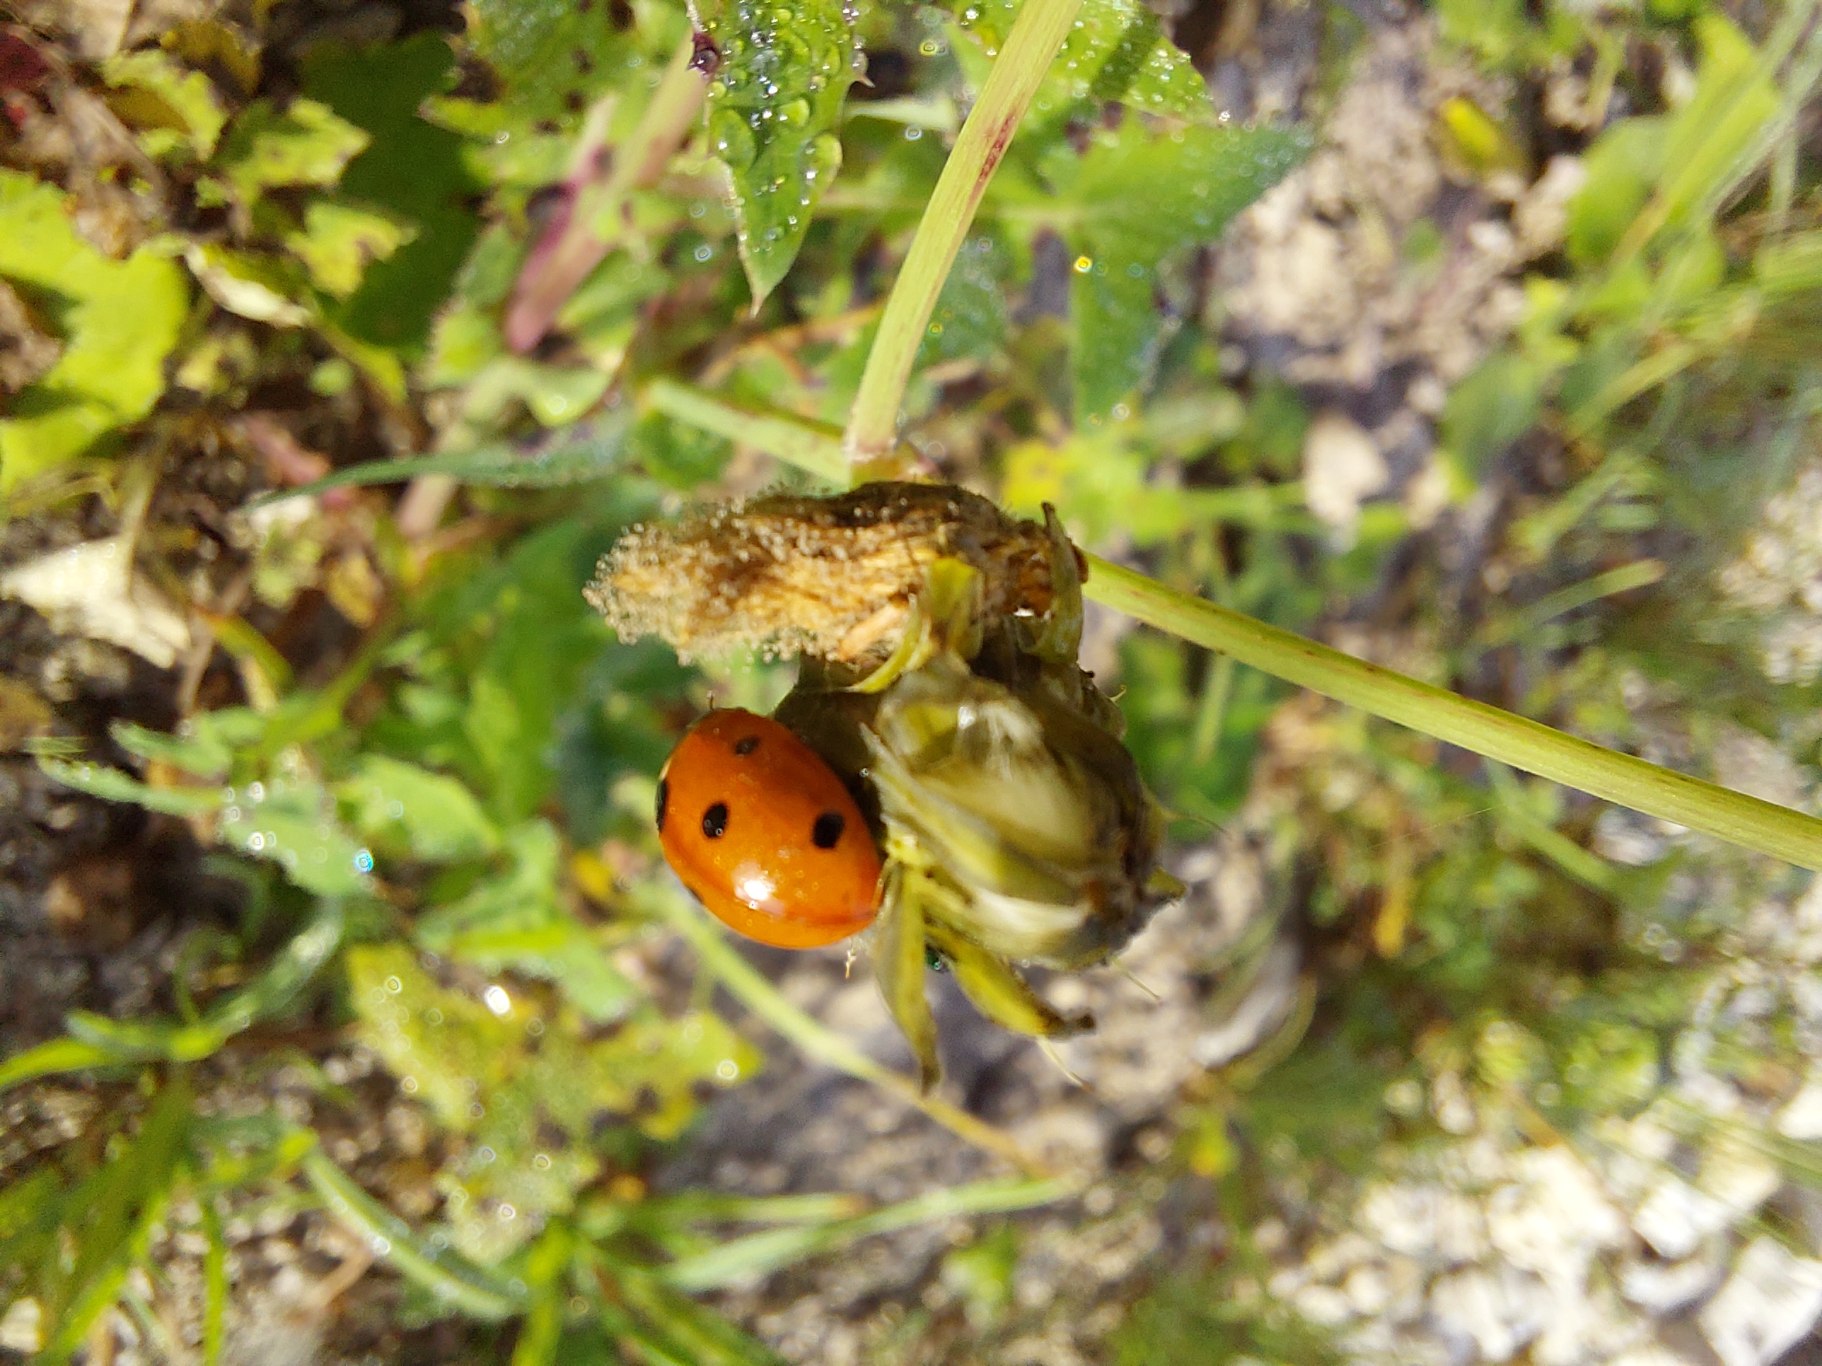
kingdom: Animalia
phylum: Arthropoda
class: Insecta
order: Coleoptera
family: Coccinellidae
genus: Coccinella
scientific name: Coccinella septempunctata
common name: Syvplettet mariehøne
